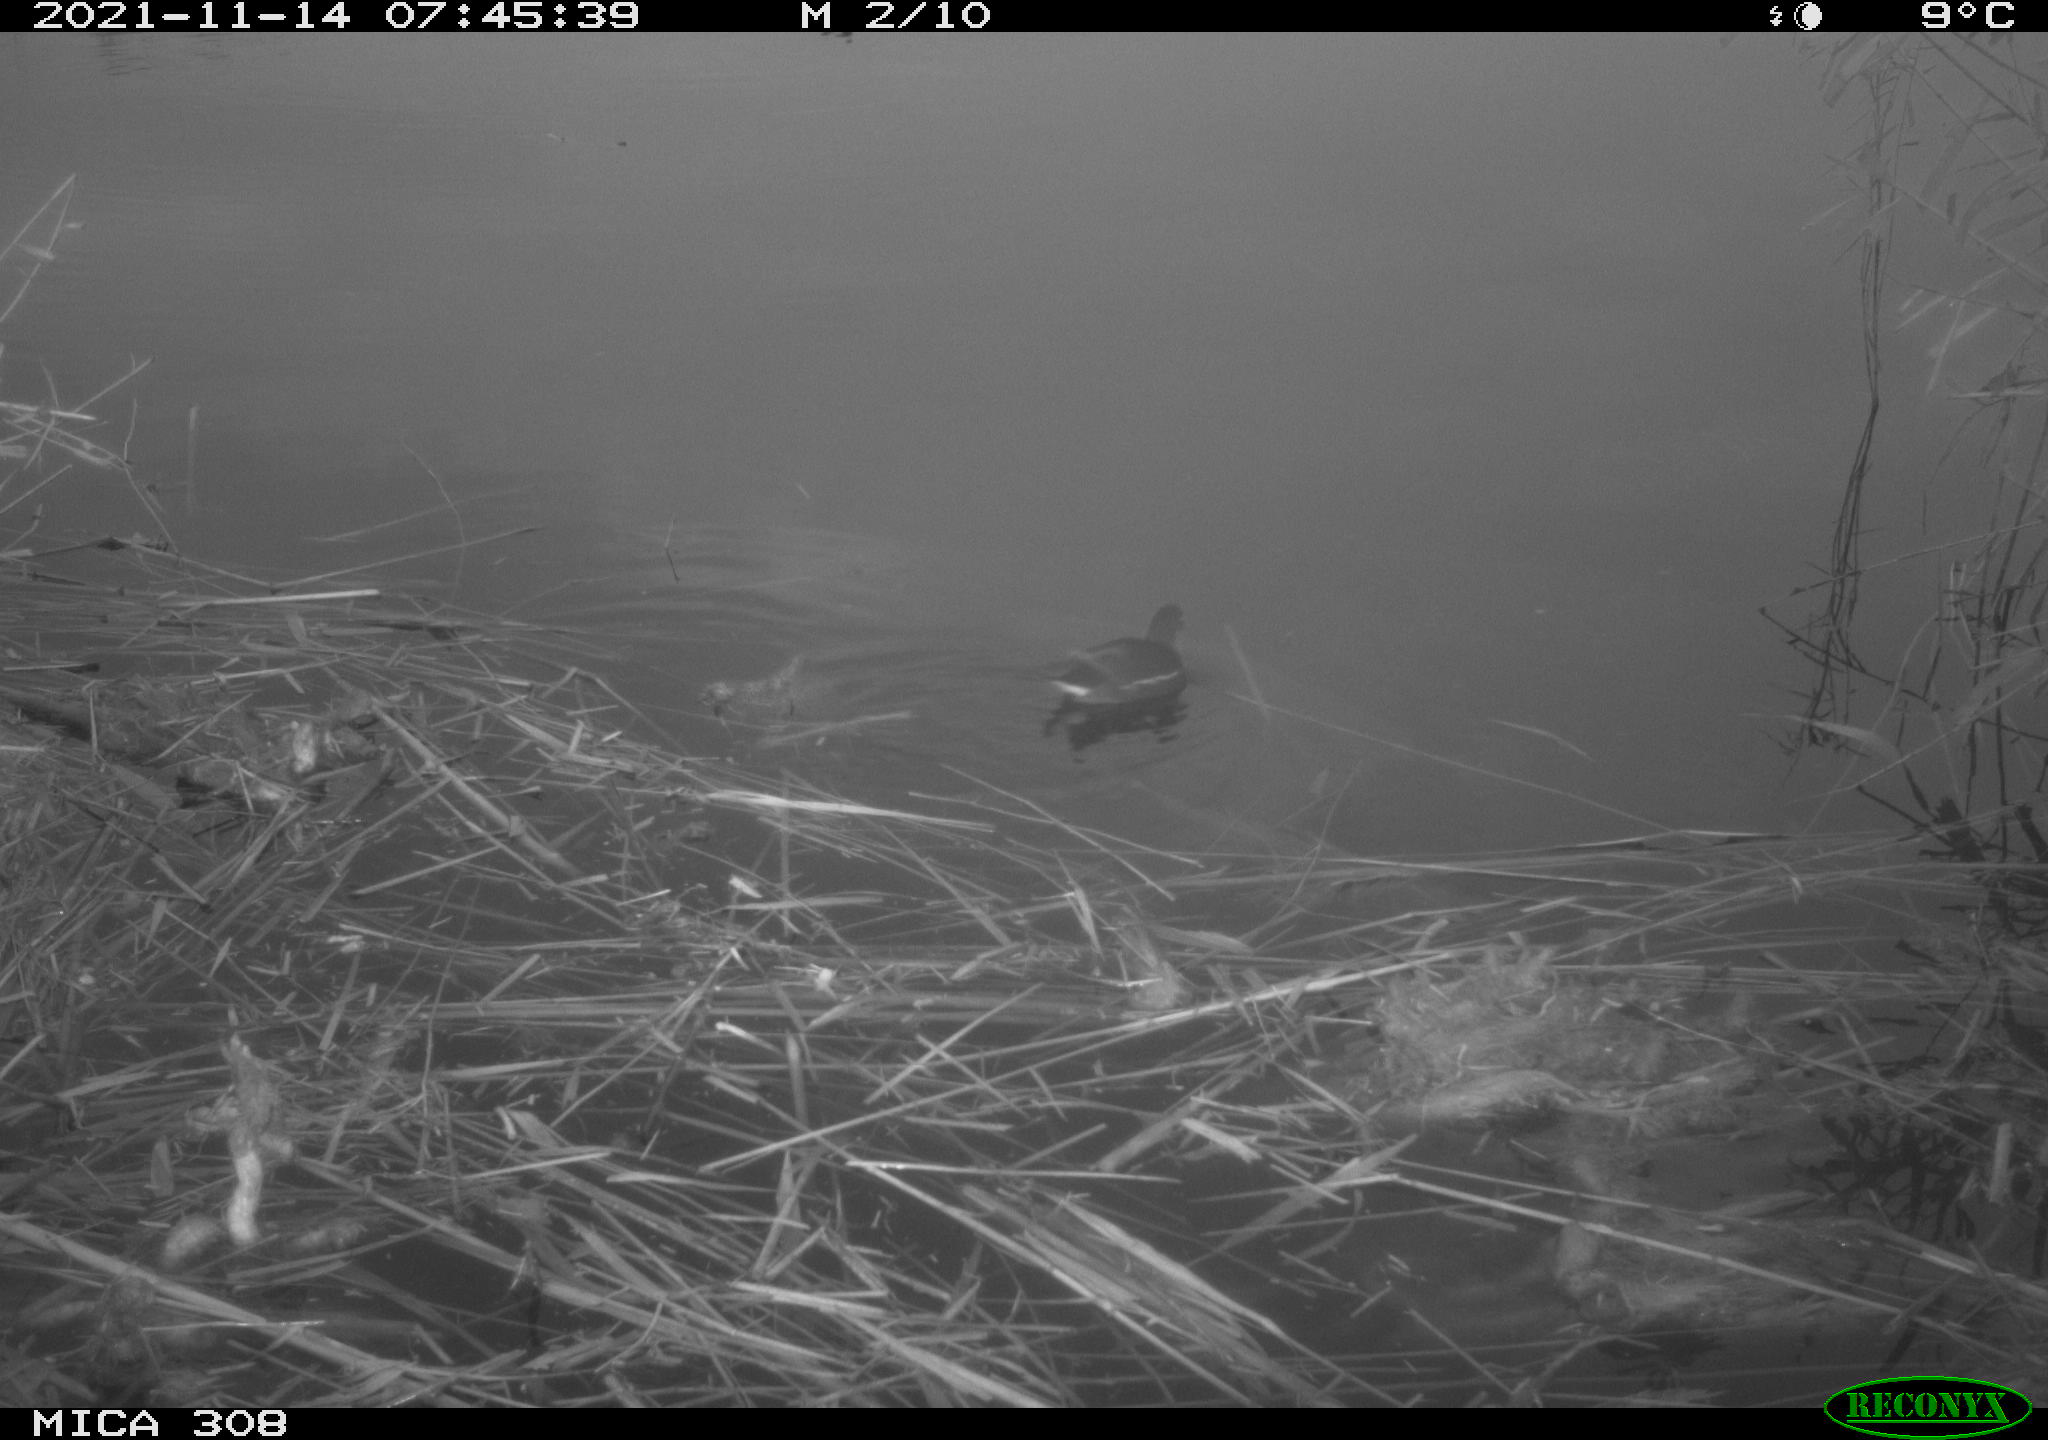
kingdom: Animalia
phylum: Chordata
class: Aves
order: Gruiformes
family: Rallidae
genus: Gallinula
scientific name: Gallinula chloropus
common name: Common moorhen
